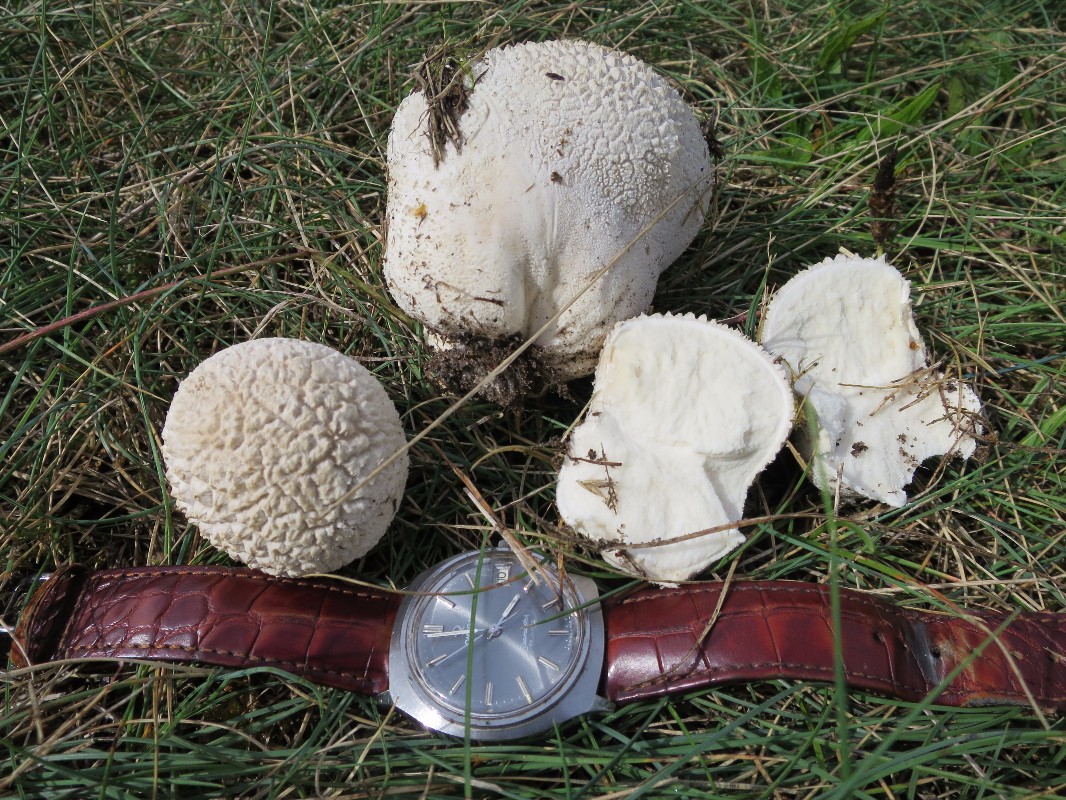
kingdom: Fungi
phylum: Basidiomycota
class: Agaricomycetes
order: Agaricales
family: Lycoperdaceae
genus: Bovistella
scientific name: Bovistella utriformis
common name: skællet støvbold
